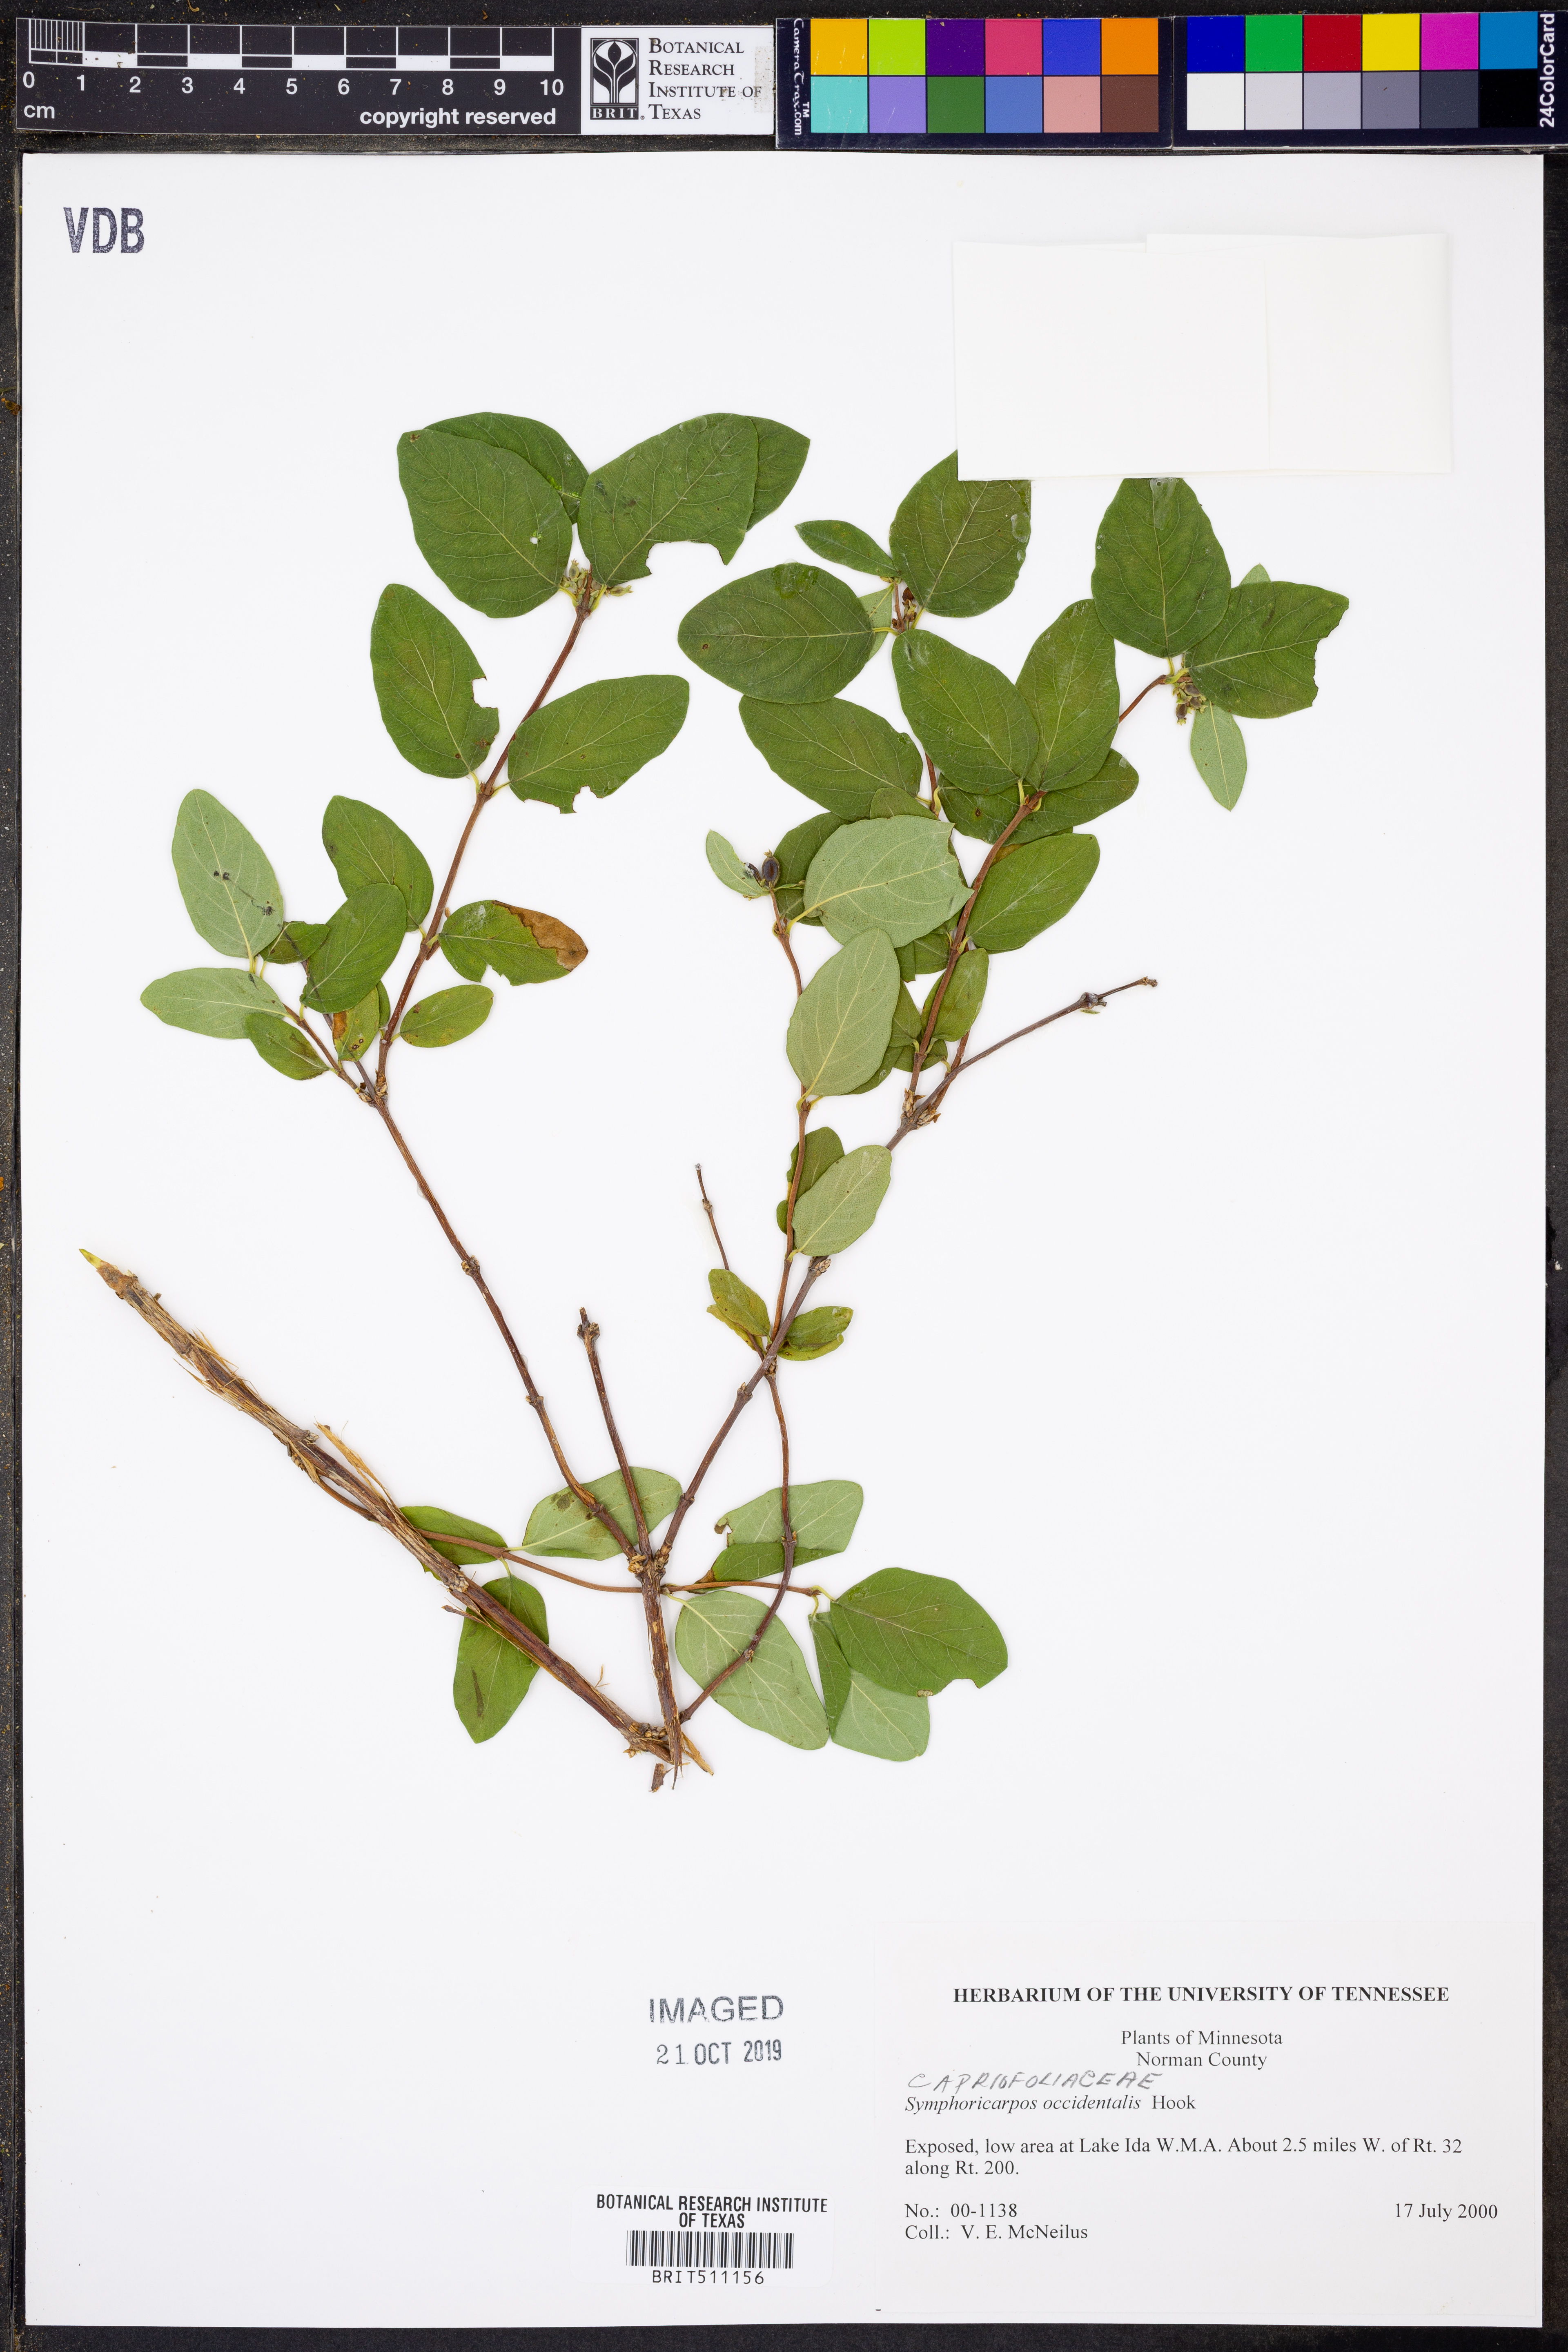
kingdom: Plantae
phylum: Tracheophyta
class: Magnoliopsida
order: Dipsacales
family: Caprifoliaceae
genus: Symphoricarpos
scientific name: Symphoricarpos occidentalis
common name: Wolfberry
